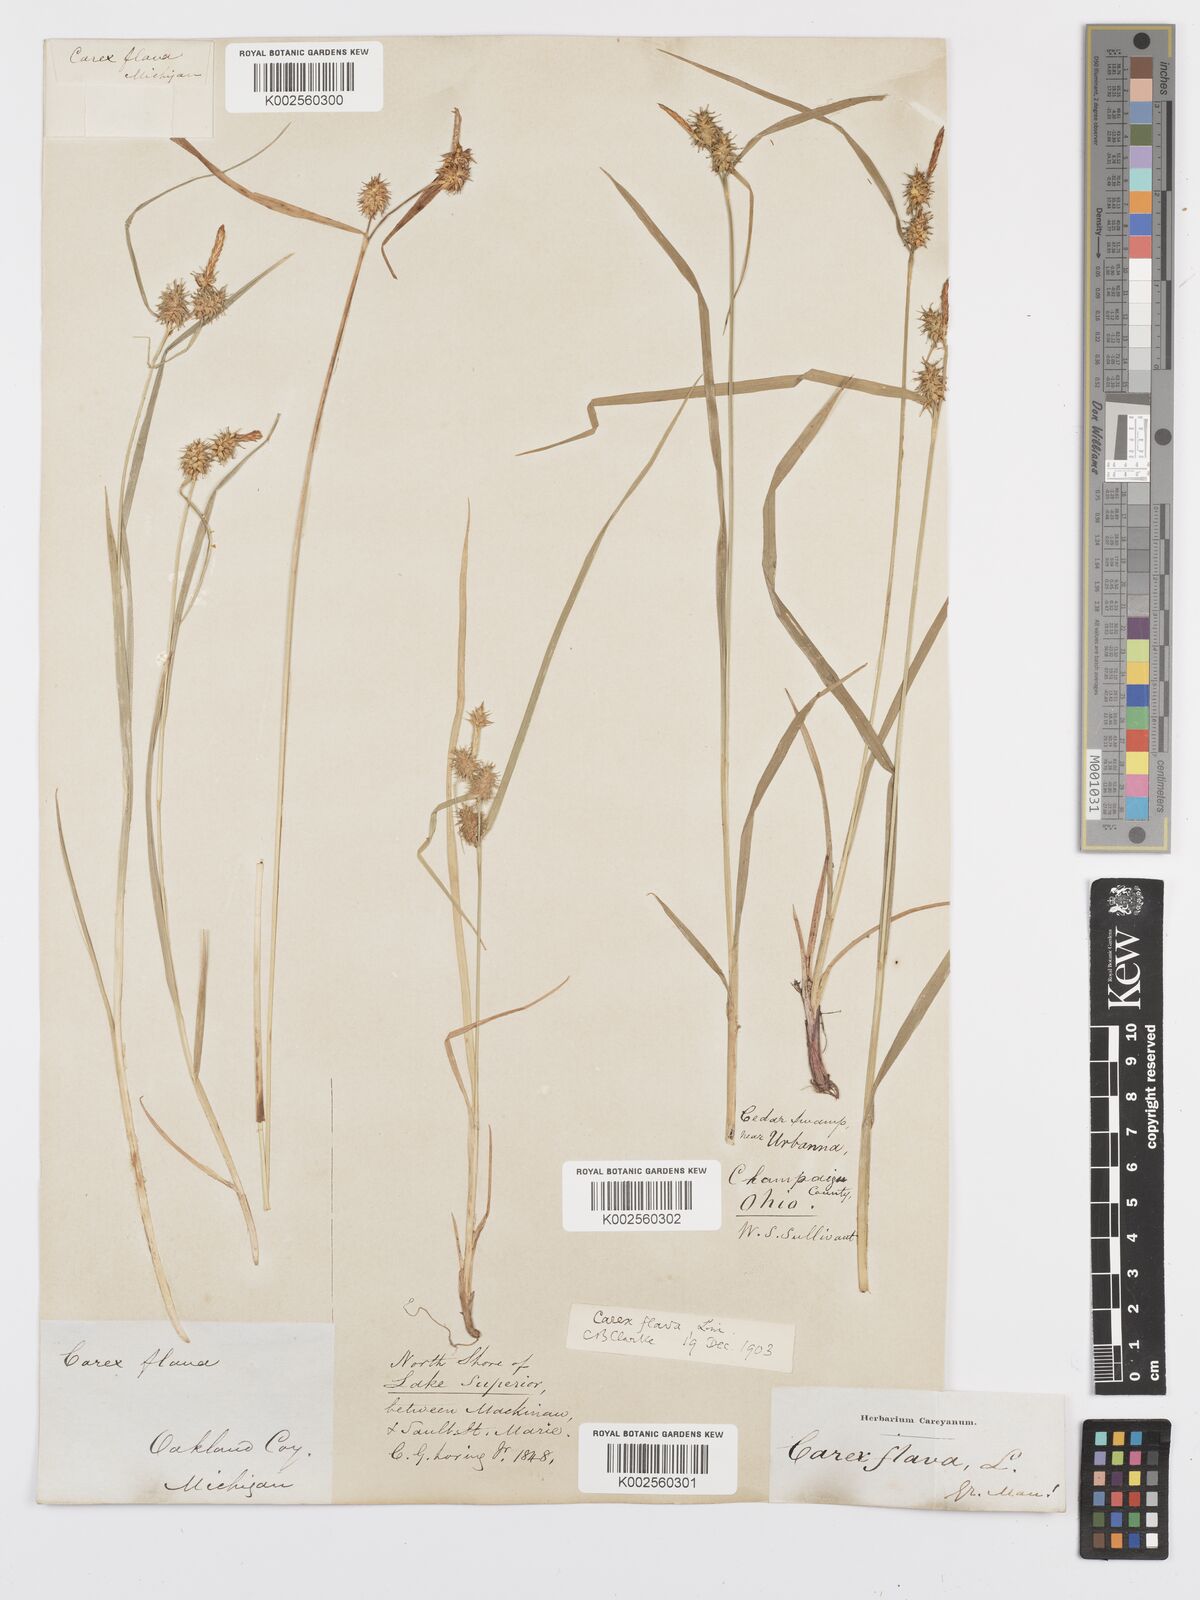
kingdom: Plantae
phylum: Tracheophyta
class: Liliopsida
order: Poales
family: Cyperaceae
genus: Carex
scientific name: Carex flava
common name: Large yellow-sedge
